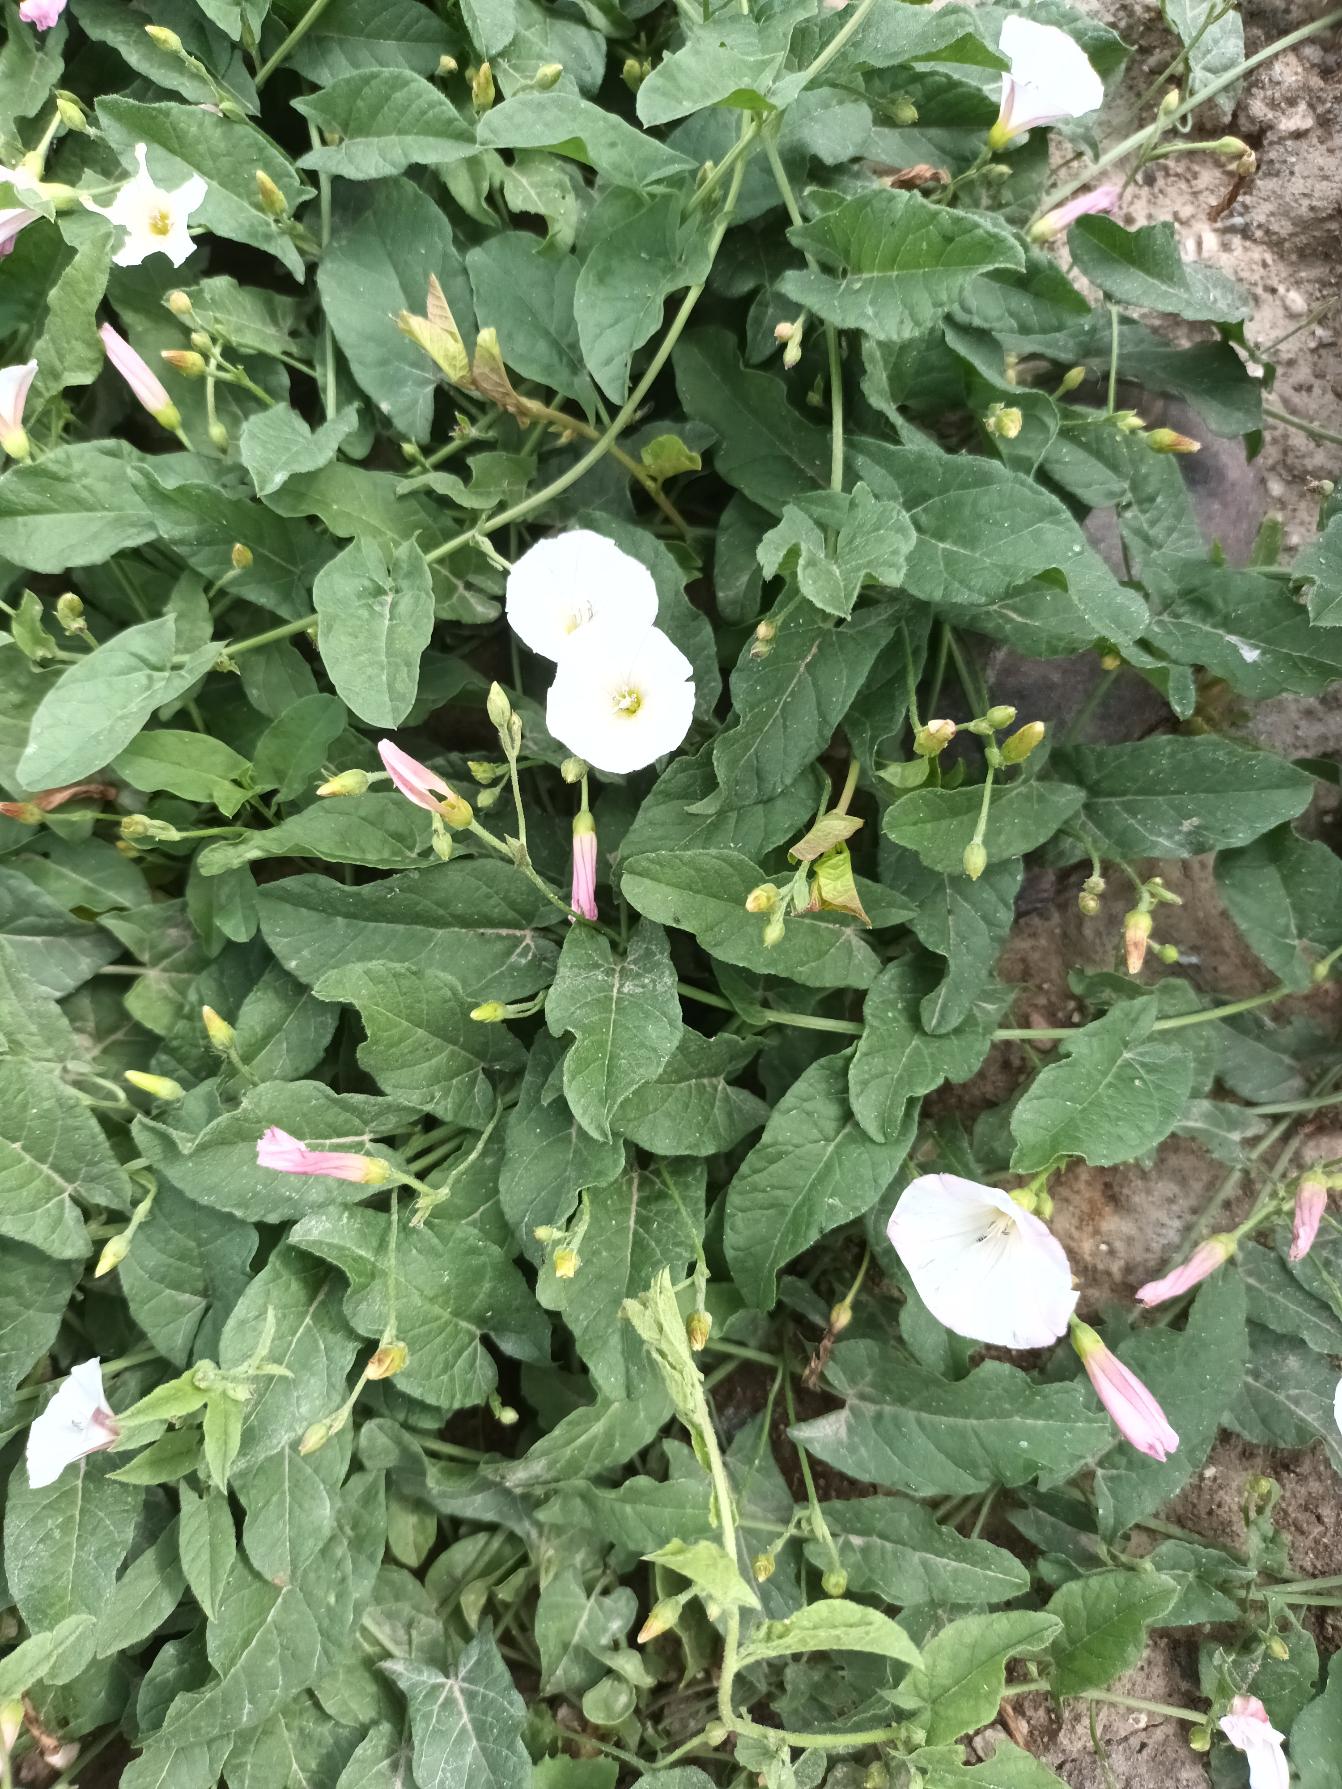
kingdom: Plantae
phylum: Tracheophyta
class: Magnoliopsida
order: Solanales
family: Convolvulaceae
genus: Convolvulus
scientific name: Convolvulus arvensis
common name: Ager-snerle
